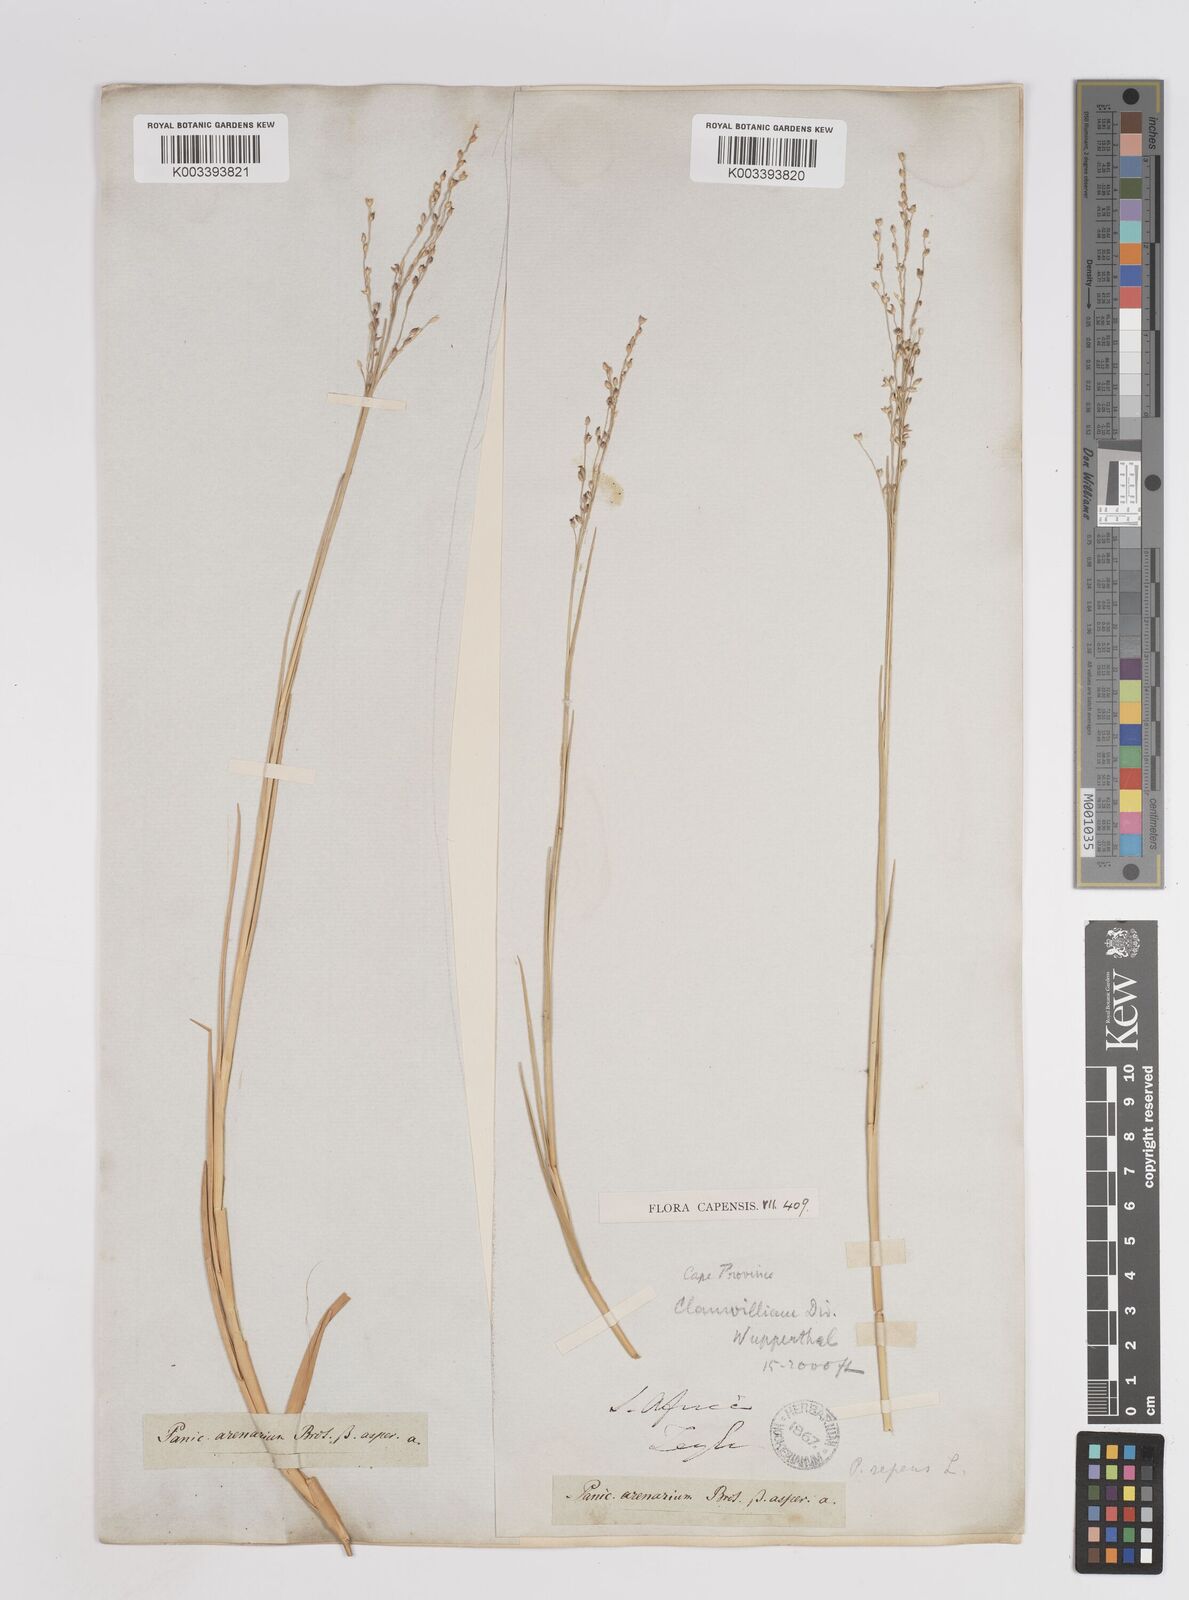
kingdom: Plantae
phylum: Tracheophyta
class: Liliopsida
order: Poales
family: Poaceae
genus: Panicum
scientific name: Panicum repens
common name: Torpedo grass
